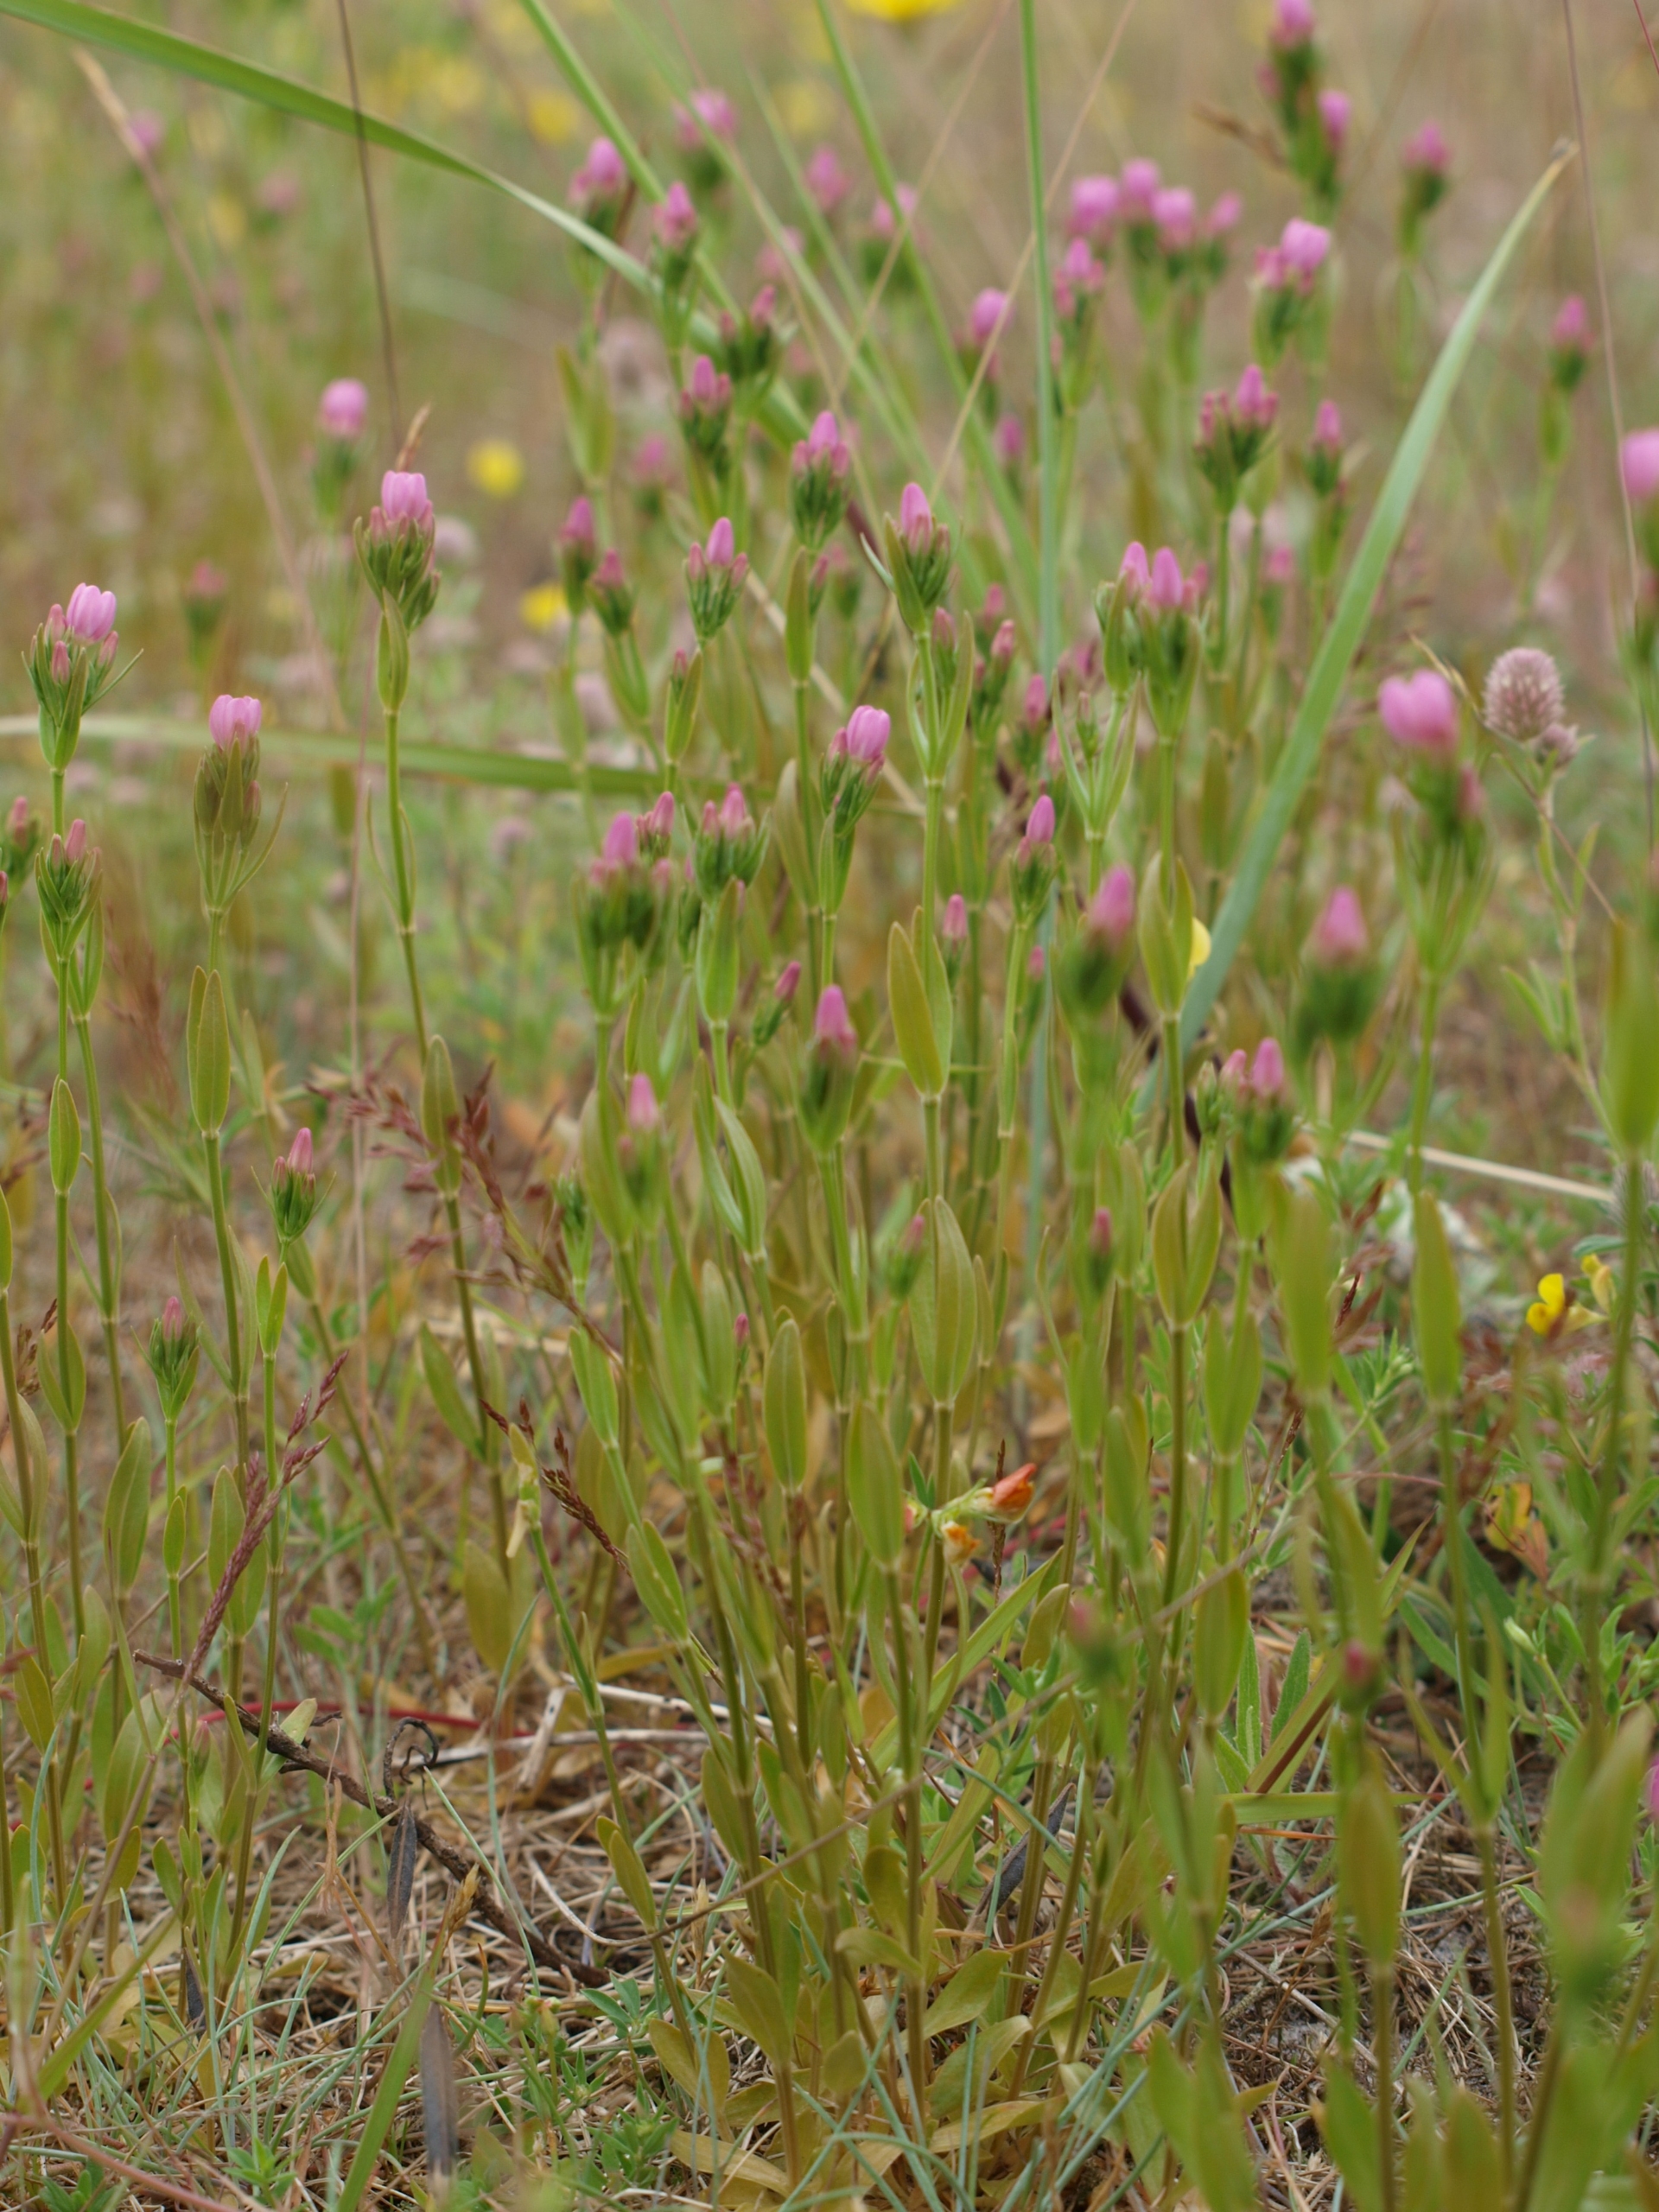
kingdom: Plantae
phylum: Tracheophyta
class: Magnoliopsida
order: Gentianales
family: Gentianaceae
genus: Centaurium
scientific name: Centaurium littorale
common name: Strand-tusindgylden
